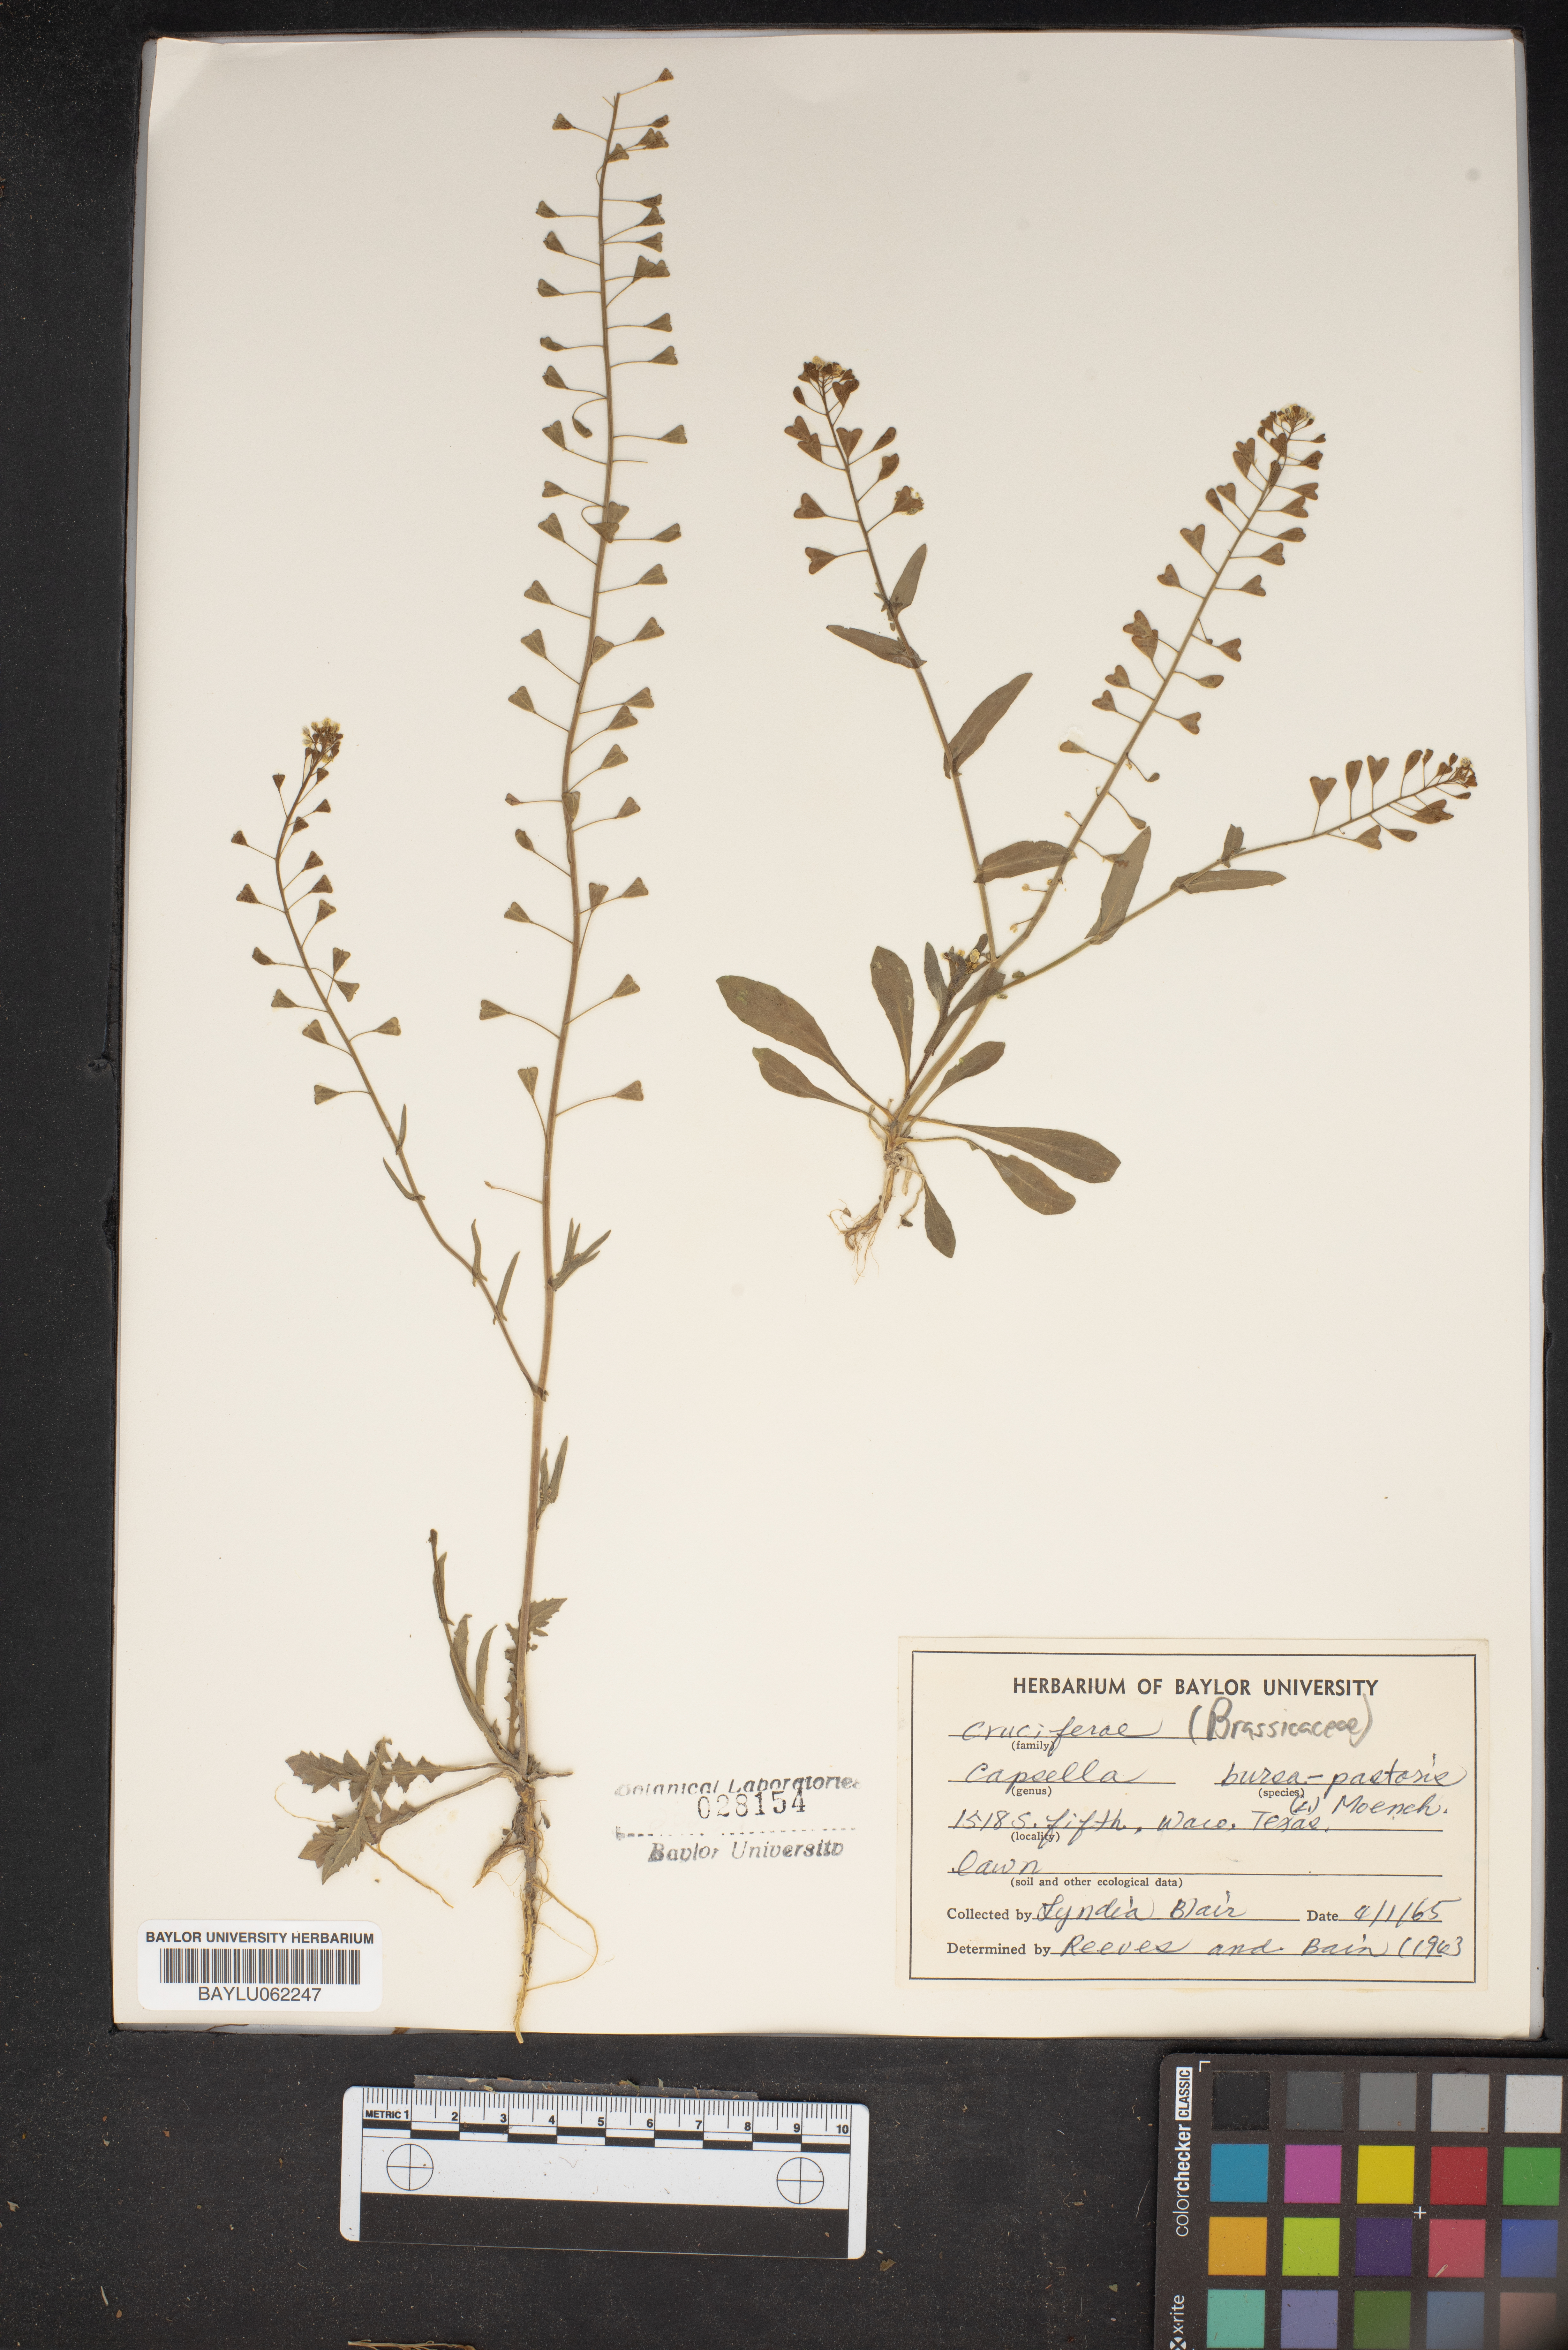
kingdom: Plantae
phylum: Tracheophyta
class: Magnoliopsida
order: Brassicales
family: Brassicaceae
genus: Capsella
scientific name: Capsella bursa-pastoris
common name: Shepherd's purse
